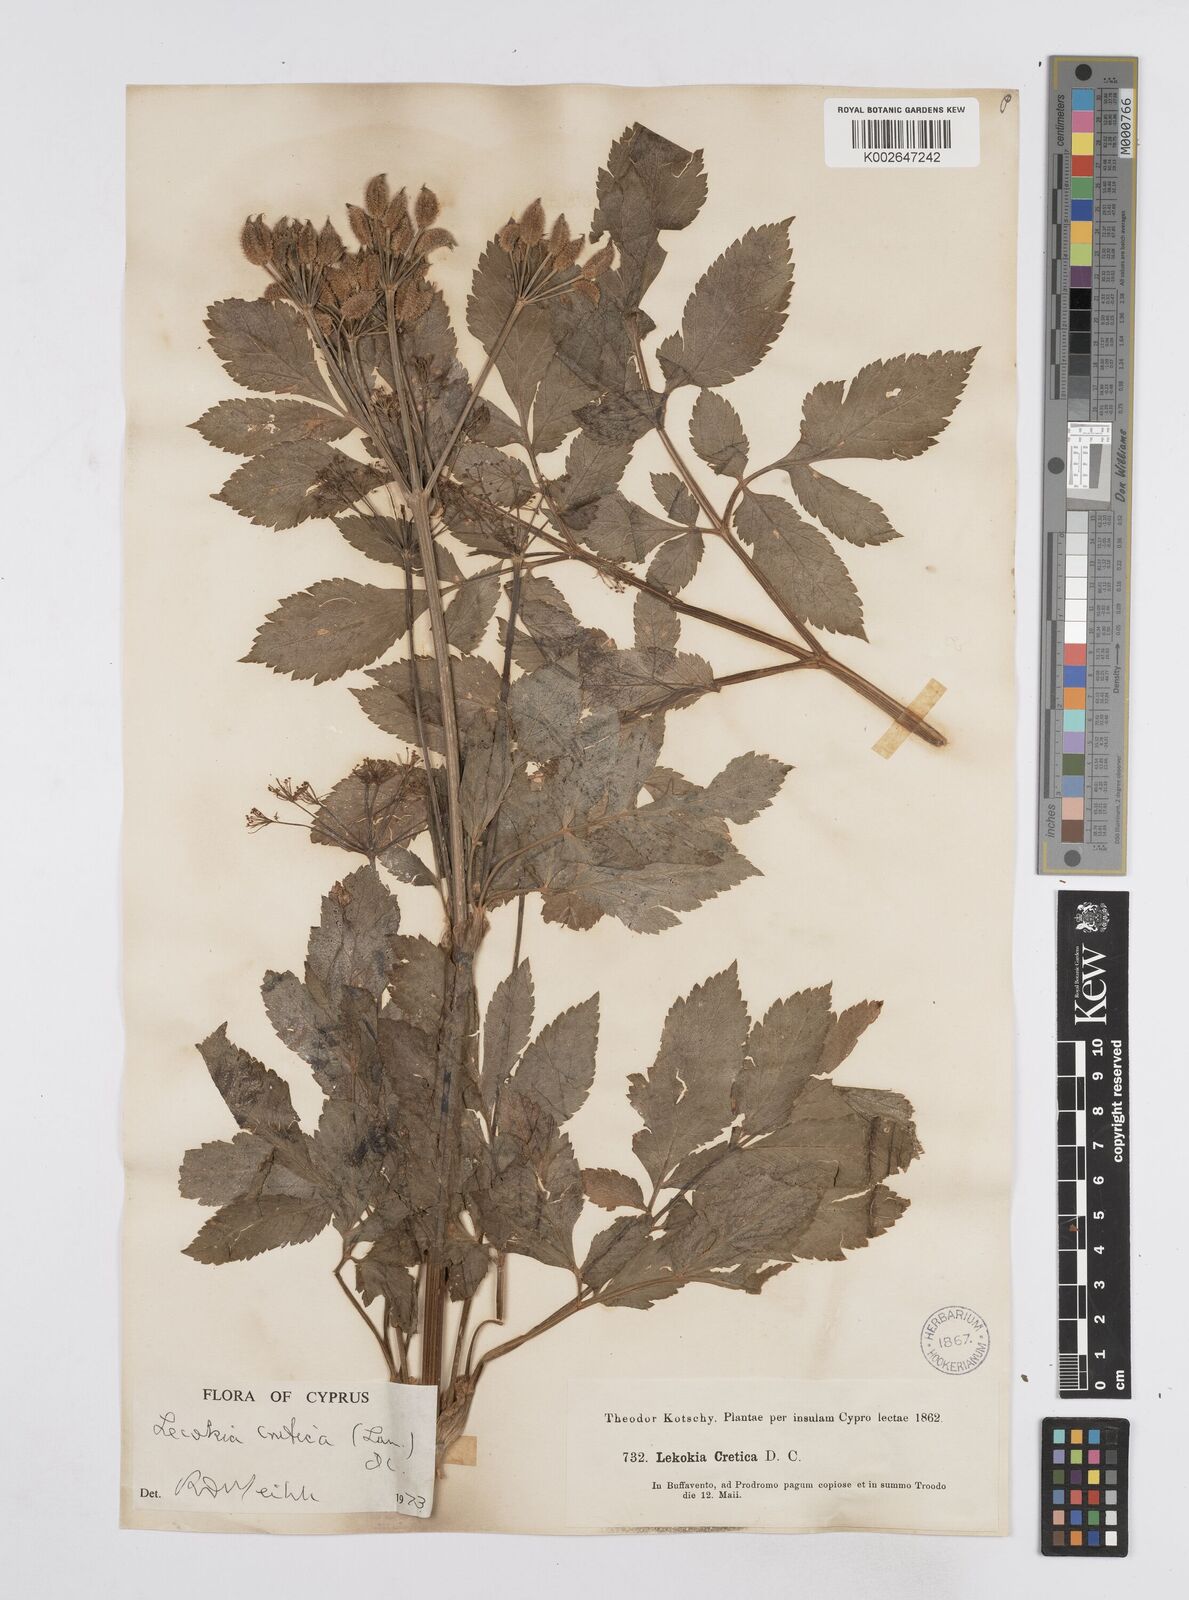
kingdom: Plantae
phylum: Tracheophyta
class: Magnoliopsida
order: Apiales
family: Apiaceae
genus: Lecokia
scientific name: Lecokia cretica
